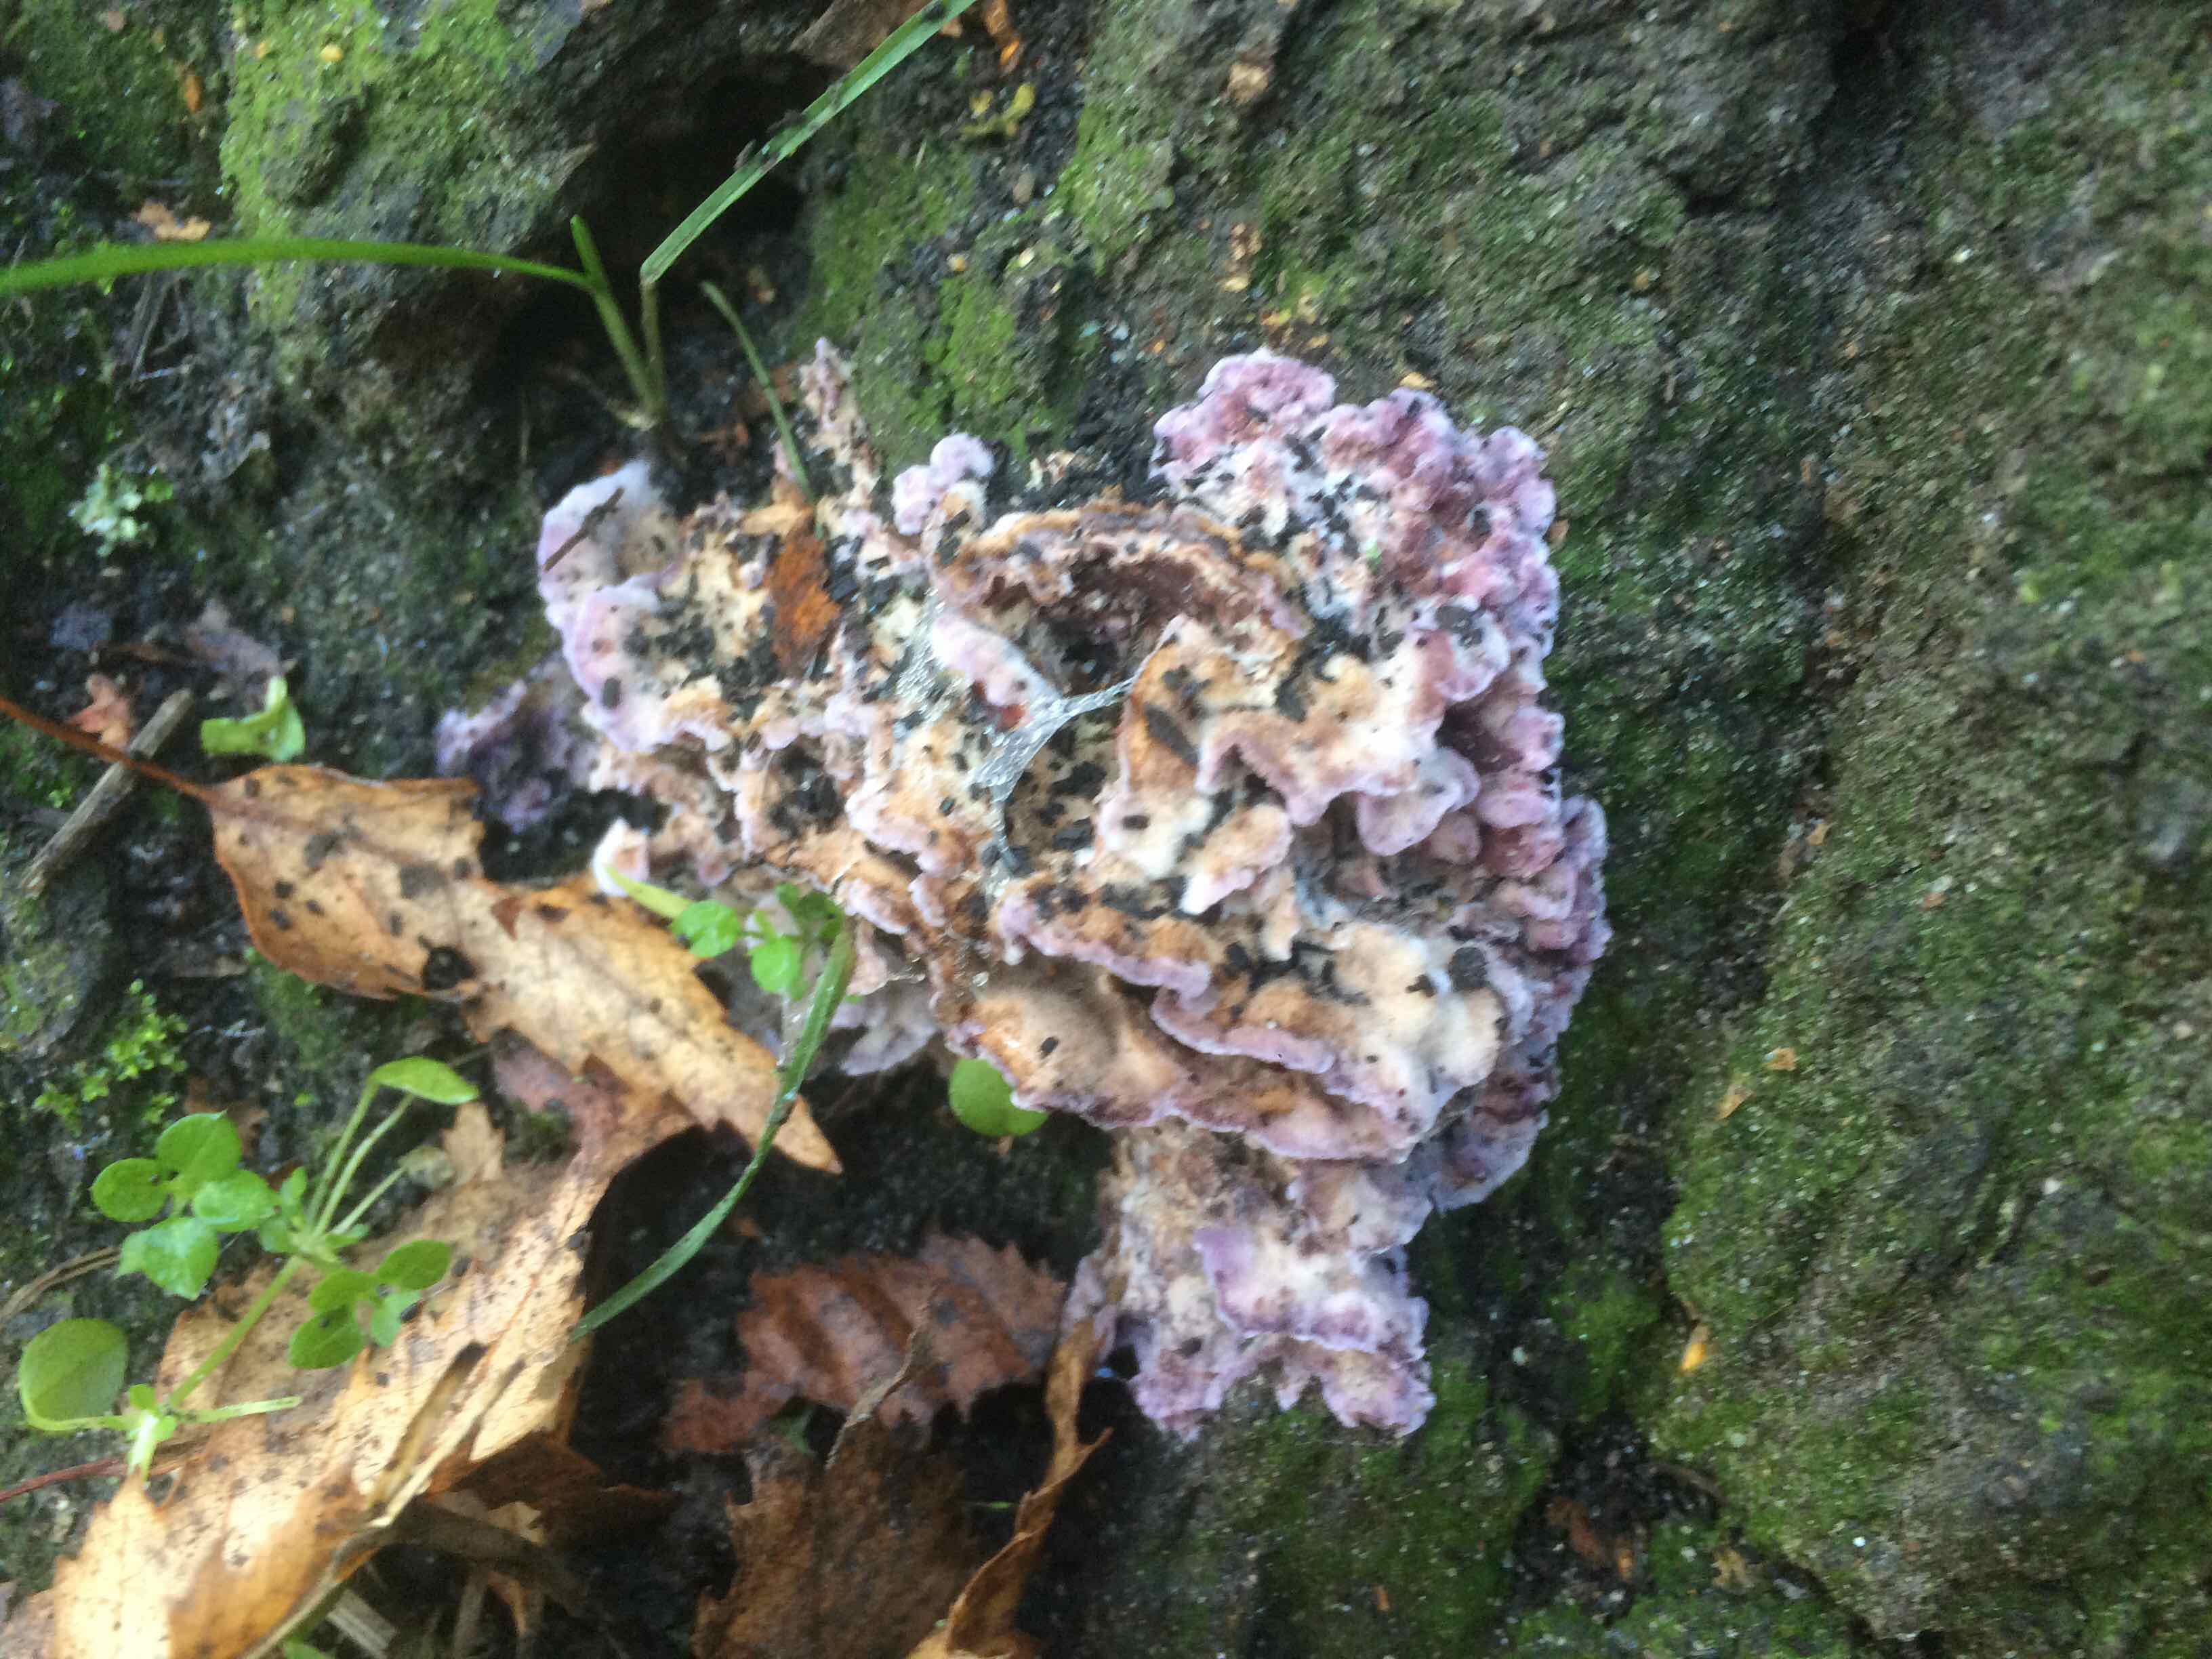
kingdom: Fungi
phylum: Basidiomycota
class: Agaricomycetes
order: Agaricales
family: Cyphellaceae
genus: Chondrostereum
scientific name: Chondrostereum purpureum
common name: purpurlædersvamp
